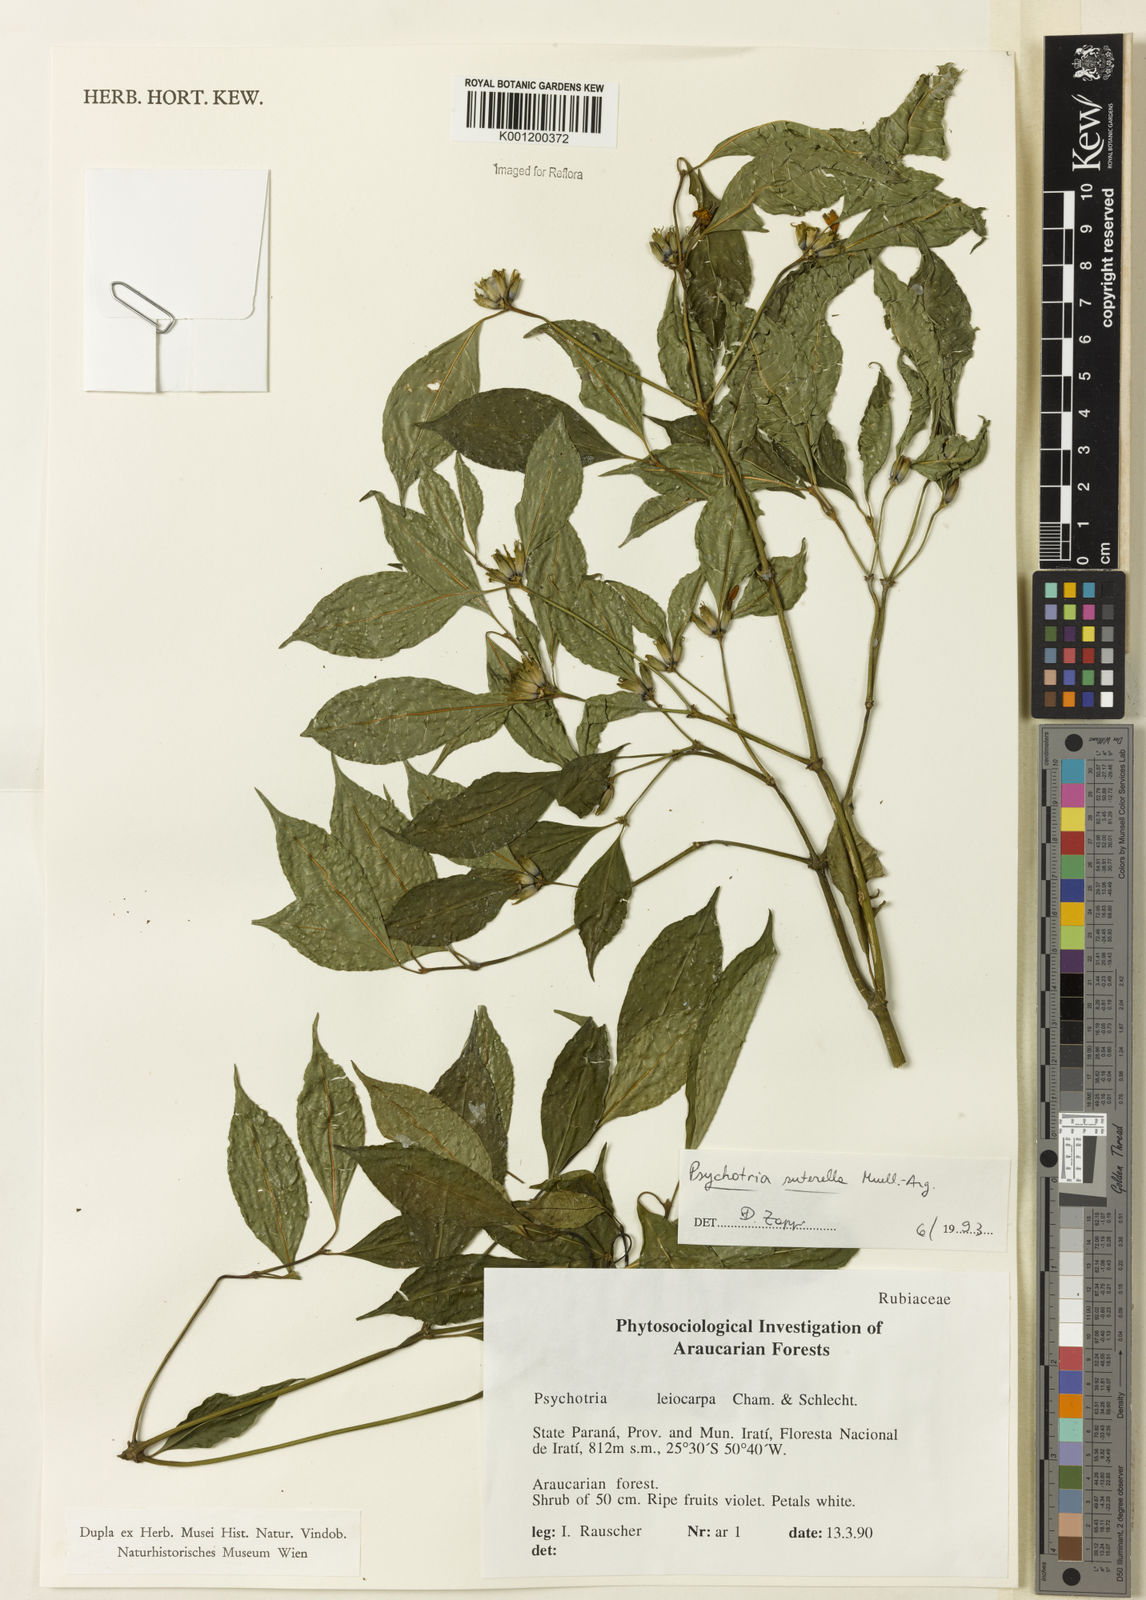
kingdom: Plantae
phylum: Tracheophyta
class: Magnoliopsida
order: Gentianales
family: Rubiaceae
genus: Psychotria
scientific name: Psychotria
